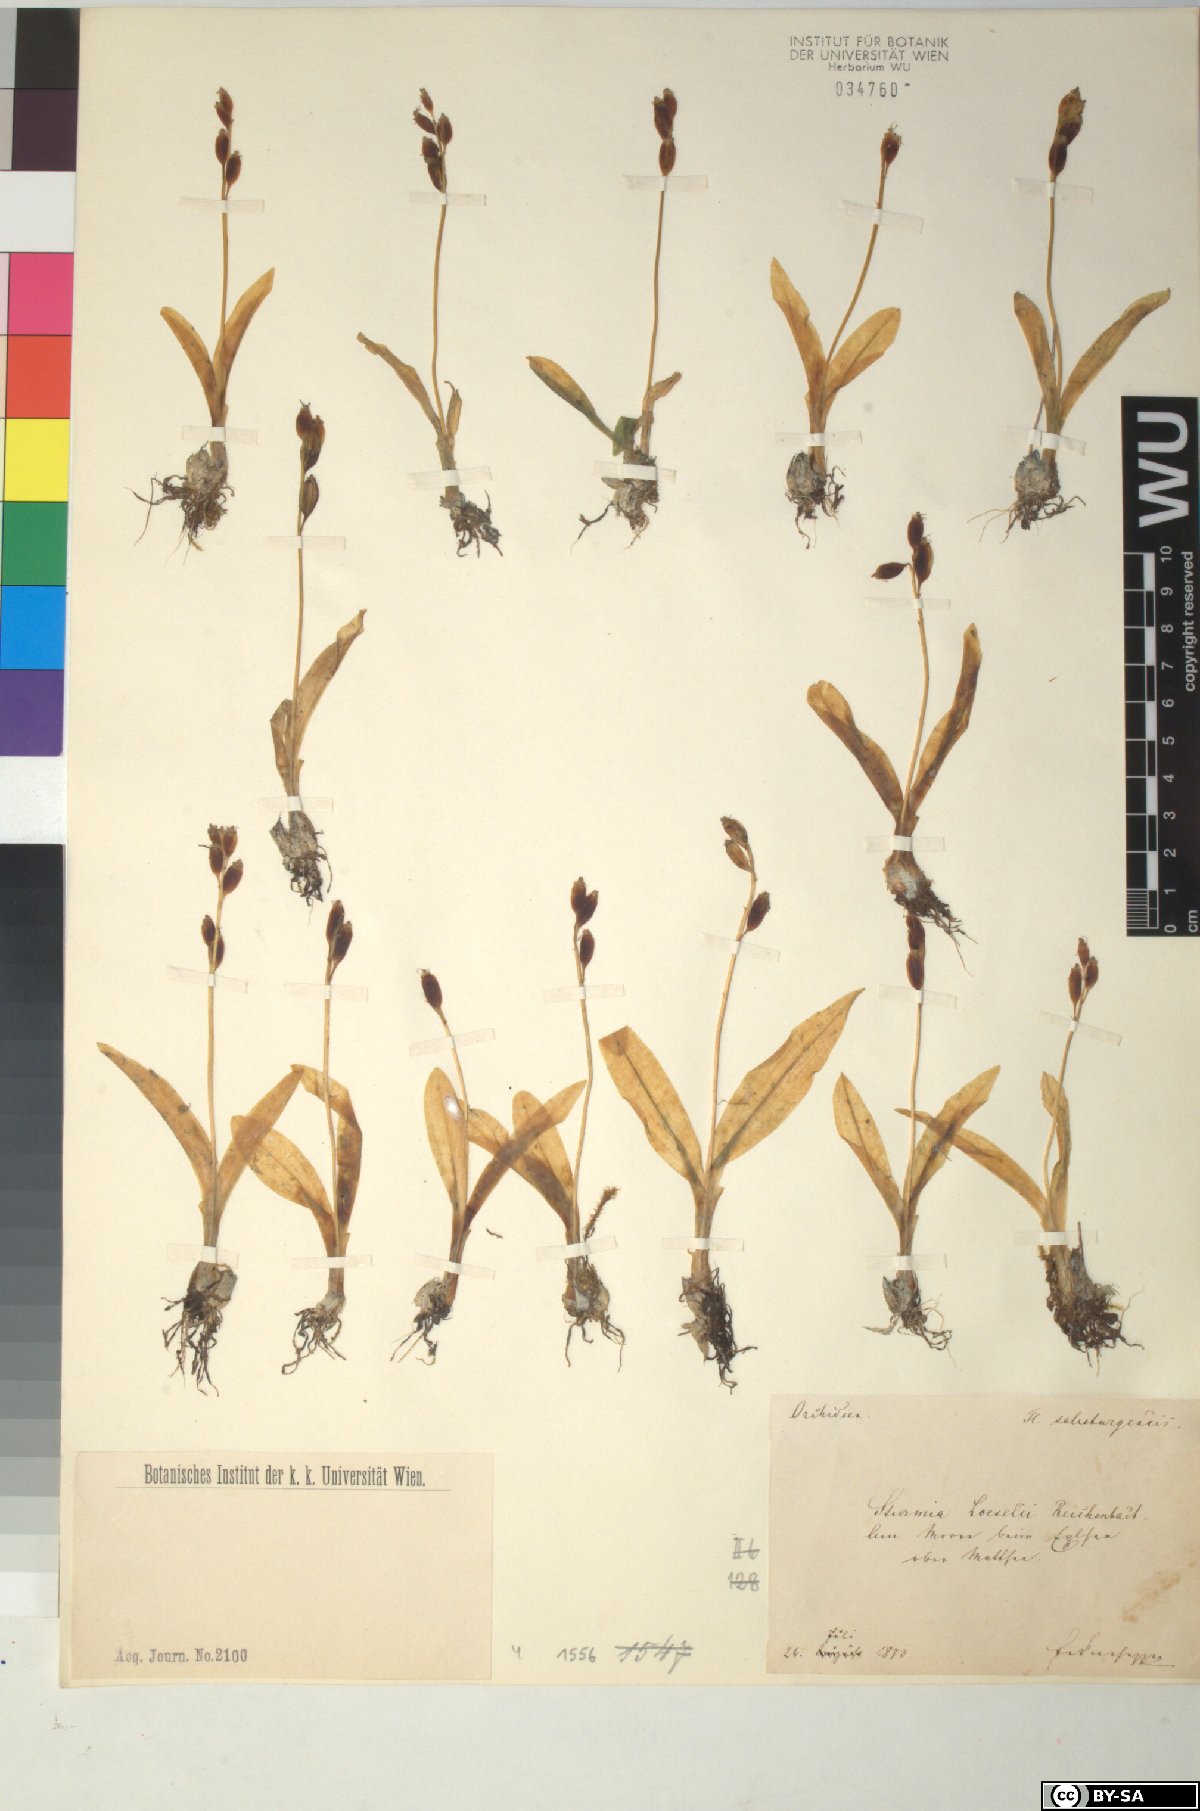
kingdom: Animalia
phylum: Arthropoda
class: Insecta
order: Coleoptera
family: Curculionidae
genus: Liparis
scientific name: Liparis loeselii
